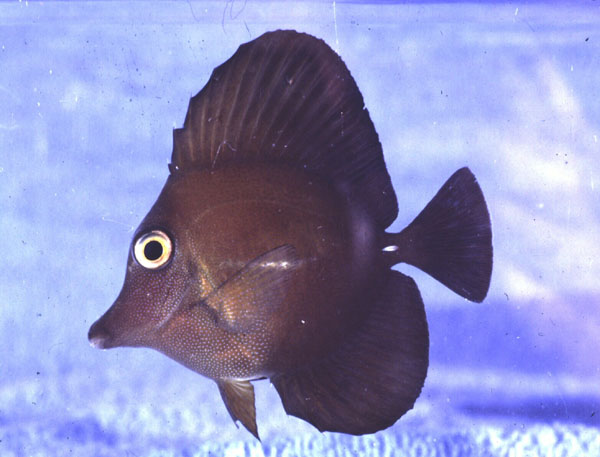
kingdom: Animalia
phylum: Chordata
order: Perciformes
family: Acanthuridae
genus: Zebrasoma
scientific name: Zebrasoma scopas
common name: Twotone tang
